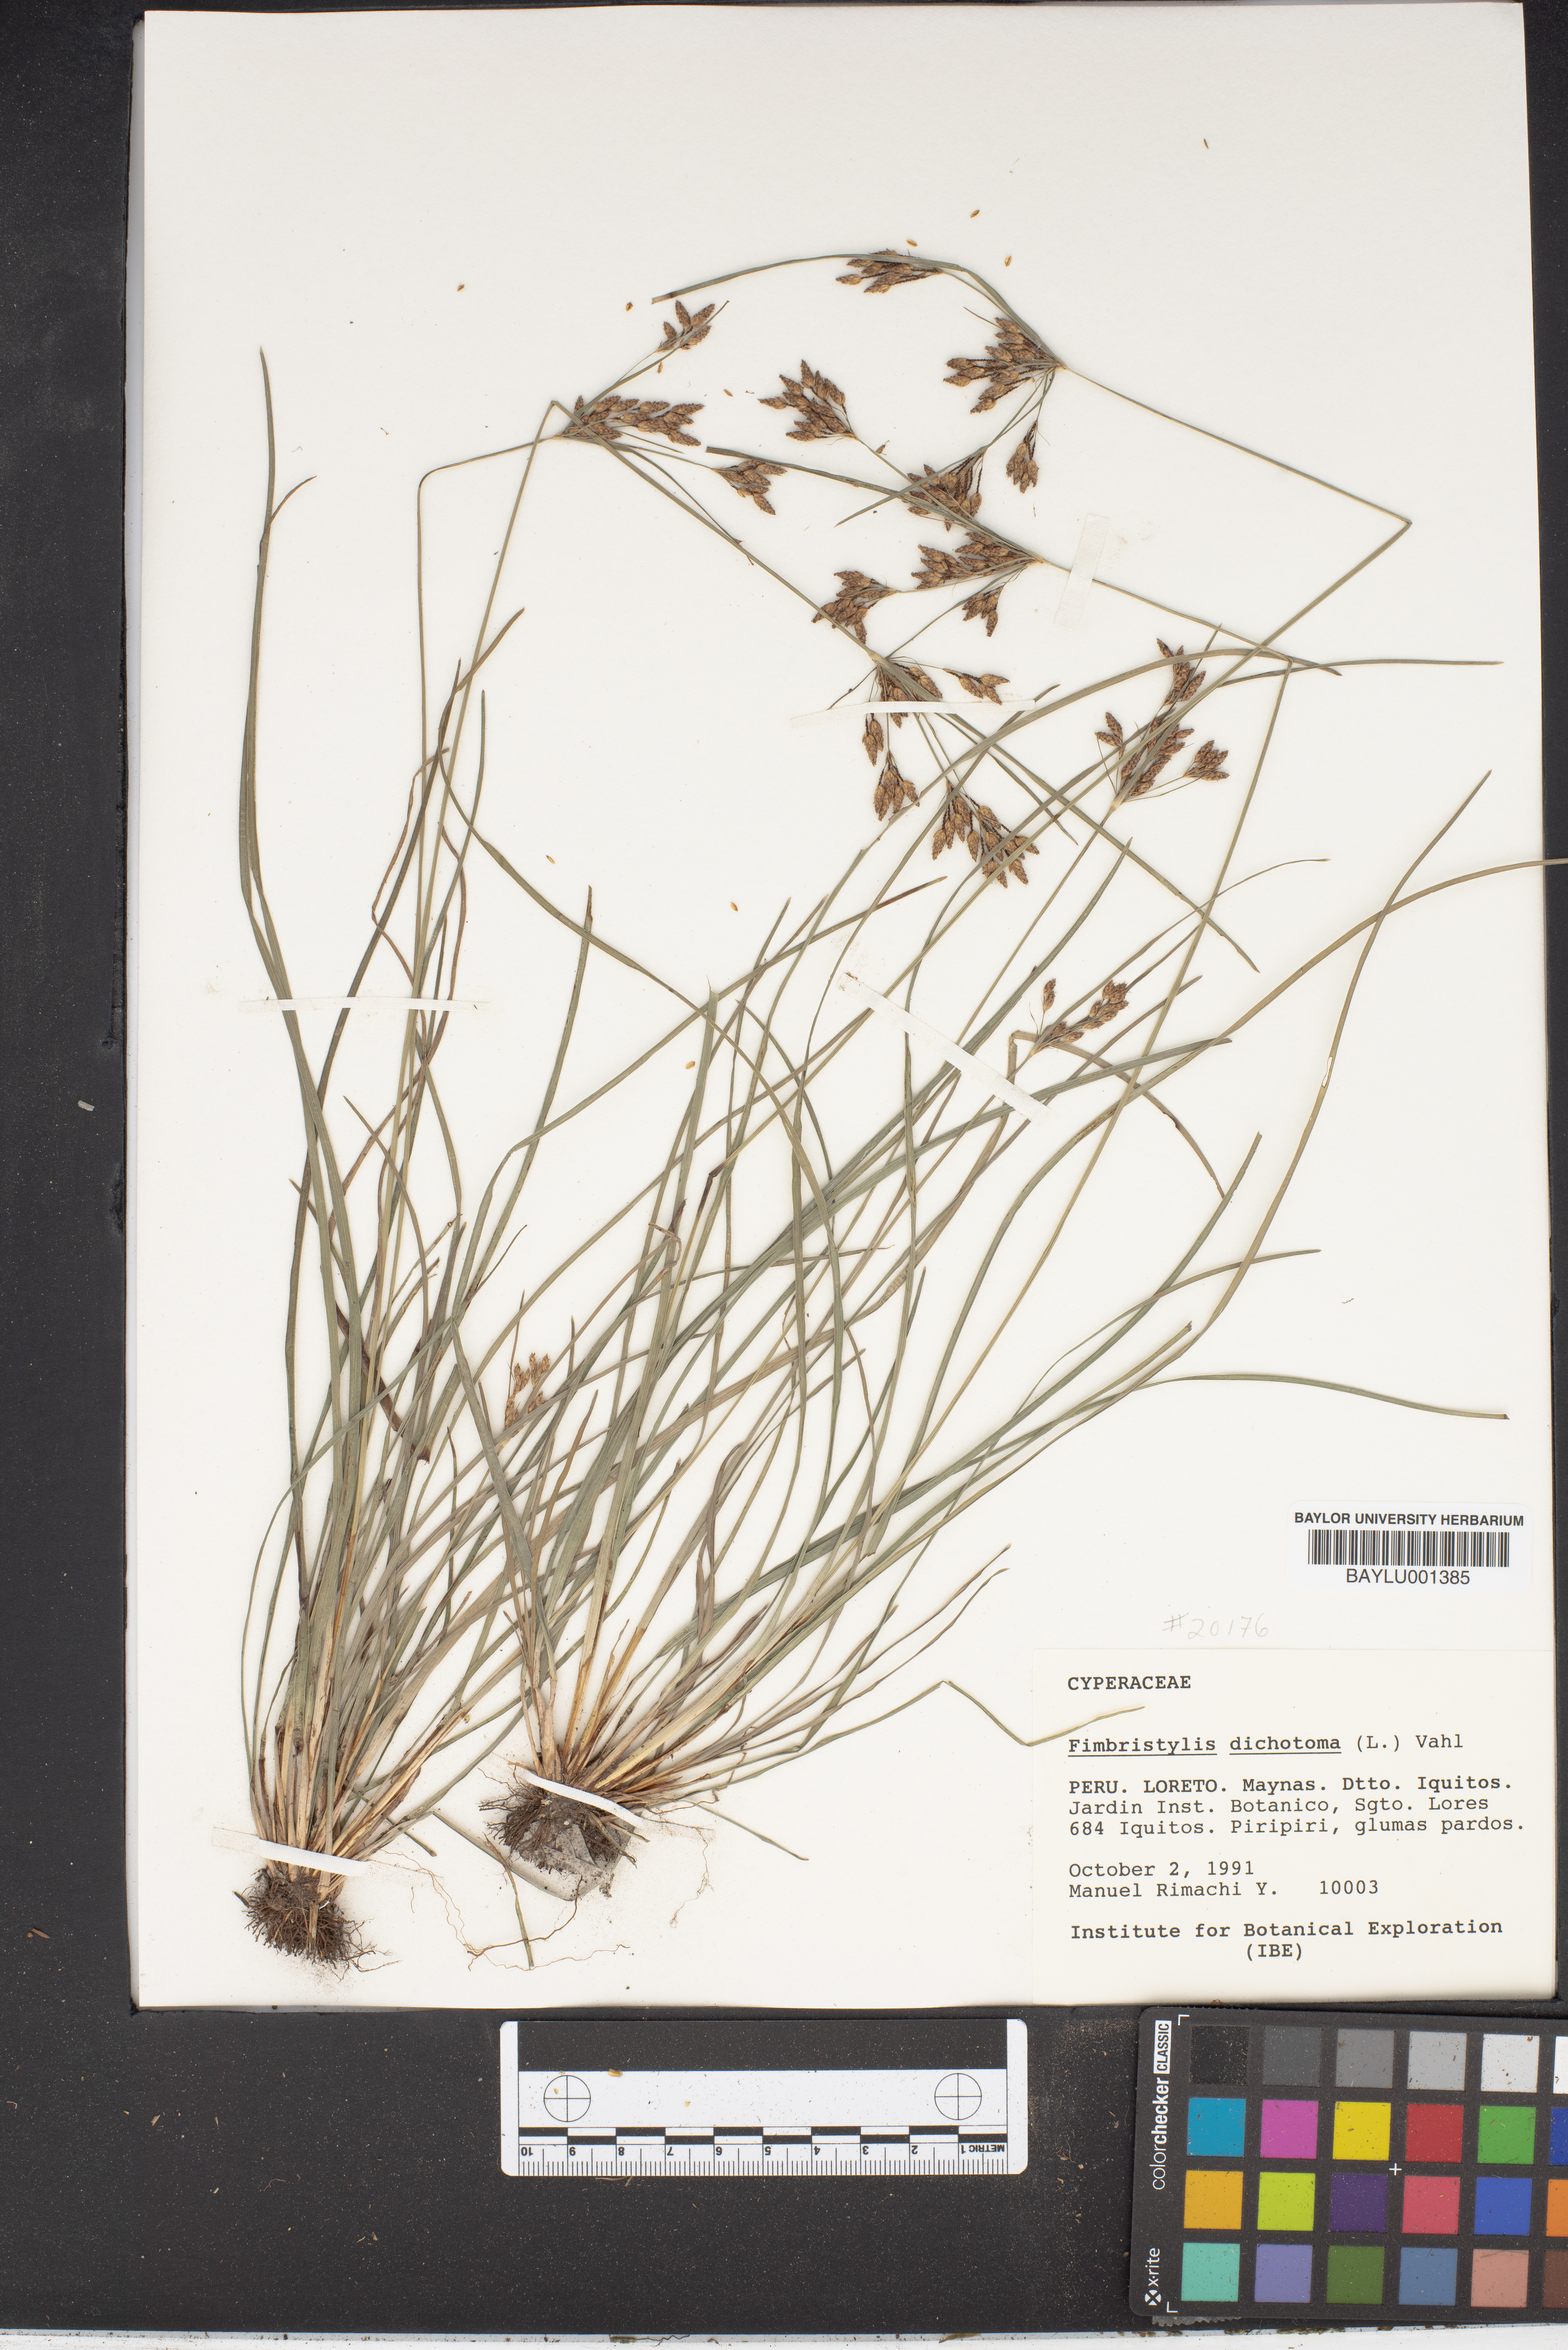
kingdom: Plantae
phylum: Tracheophyta
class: Liliopsida
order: Poales
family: Cyperaceae
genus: Fimbristylis
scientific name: Fimbristylis dichotoma
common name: Forked fimbry
